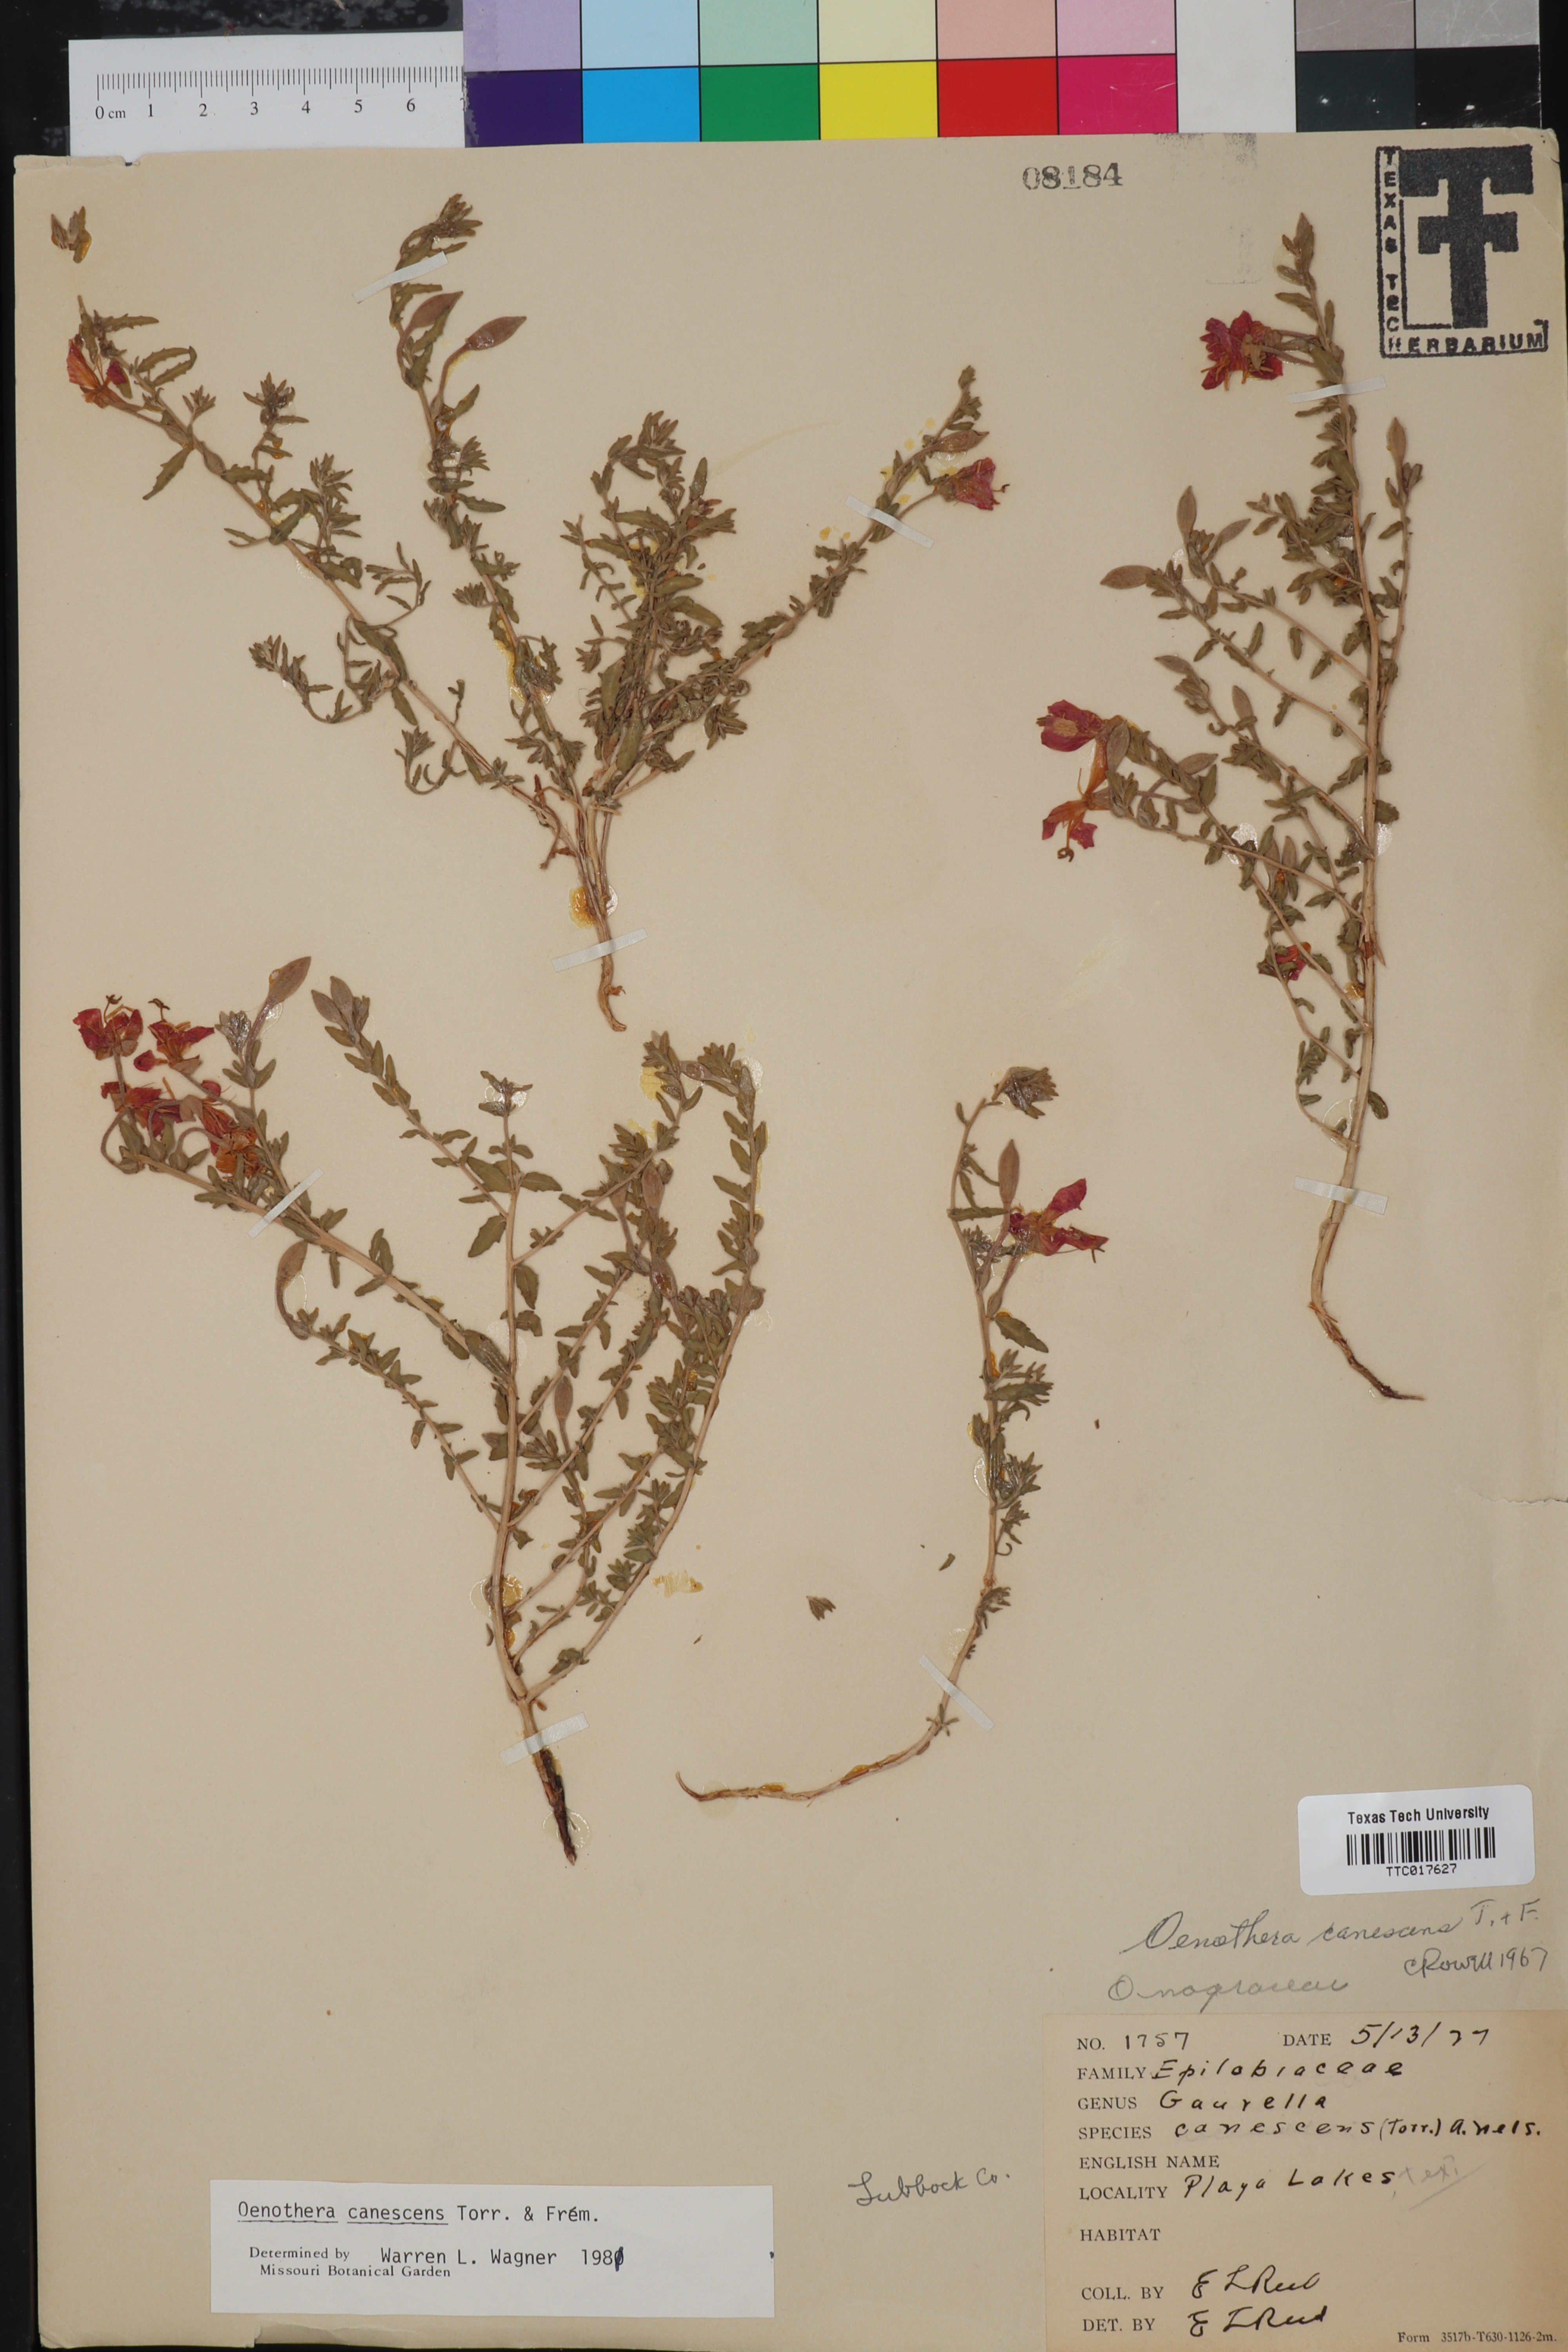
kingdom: Plantae
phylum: Tracheophyta
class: Magnoliopsida
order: Myrtales
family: Onagraceae
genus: Oenothera
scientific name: Oenothera canescens
